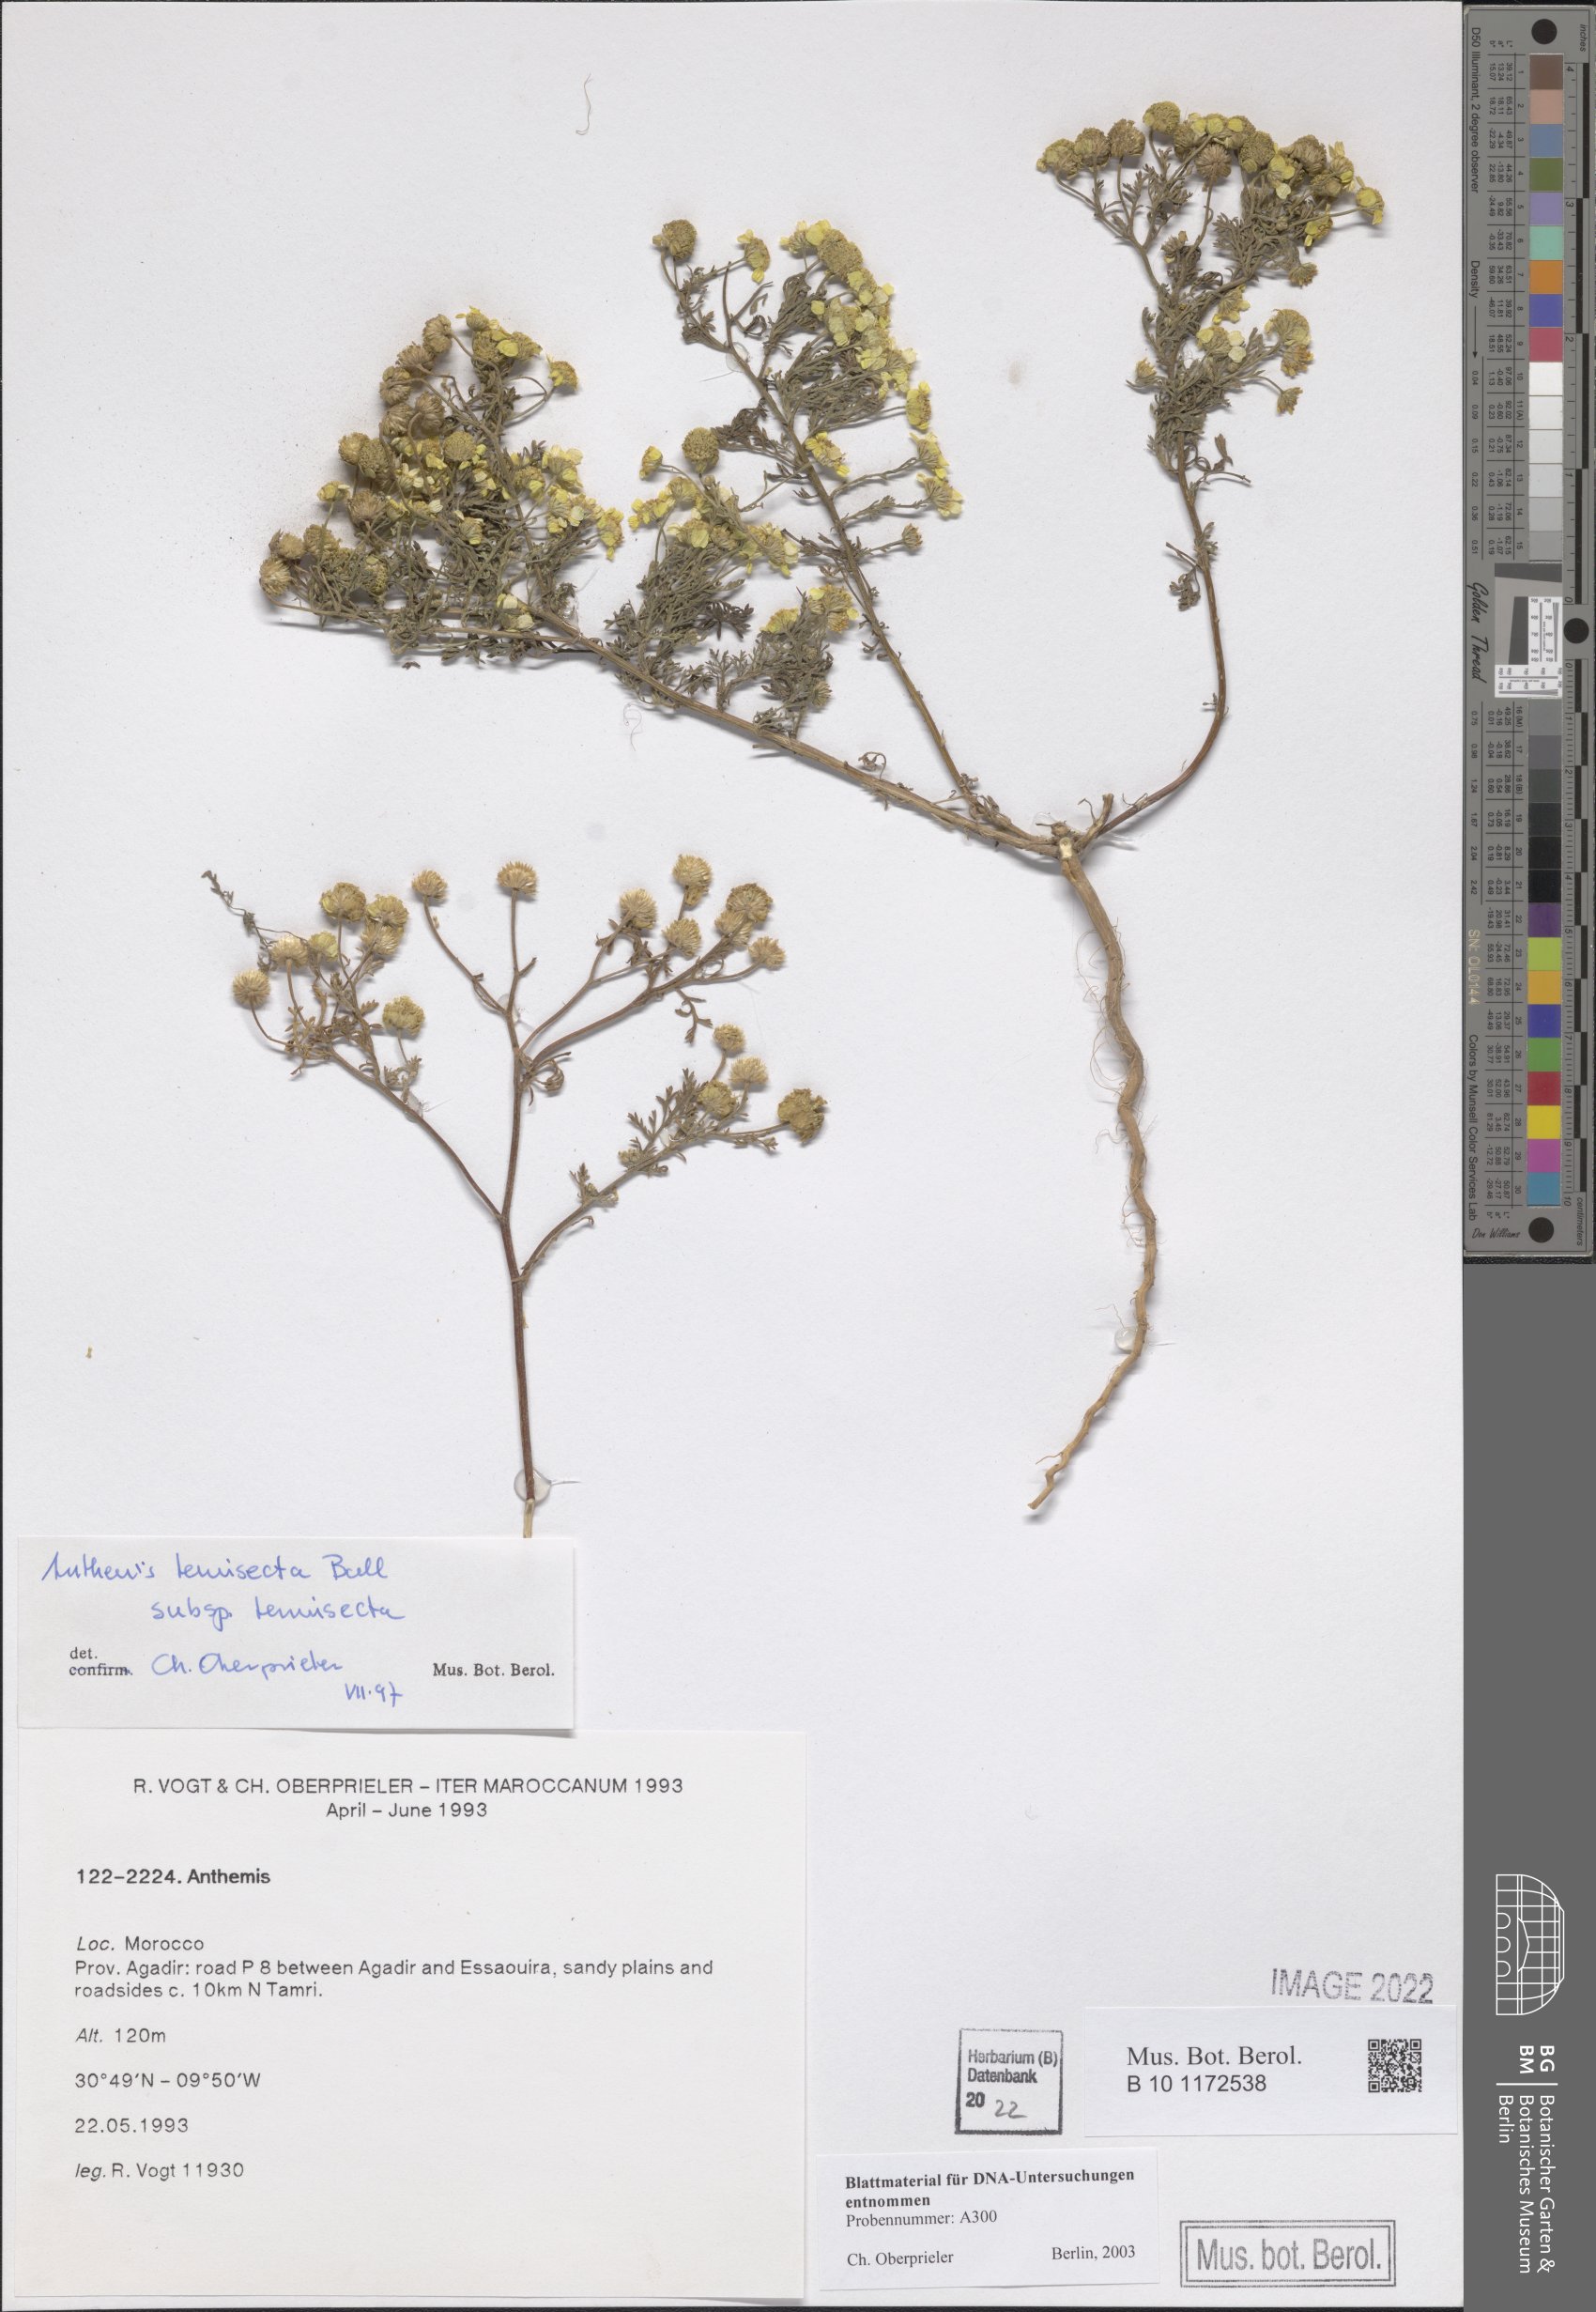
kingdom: Plantae
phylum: Tracheophyta
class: Magnoliopsida
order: Asterales
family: Asteraceae
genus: Anthemis
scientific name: Anthemis tenuisecta
